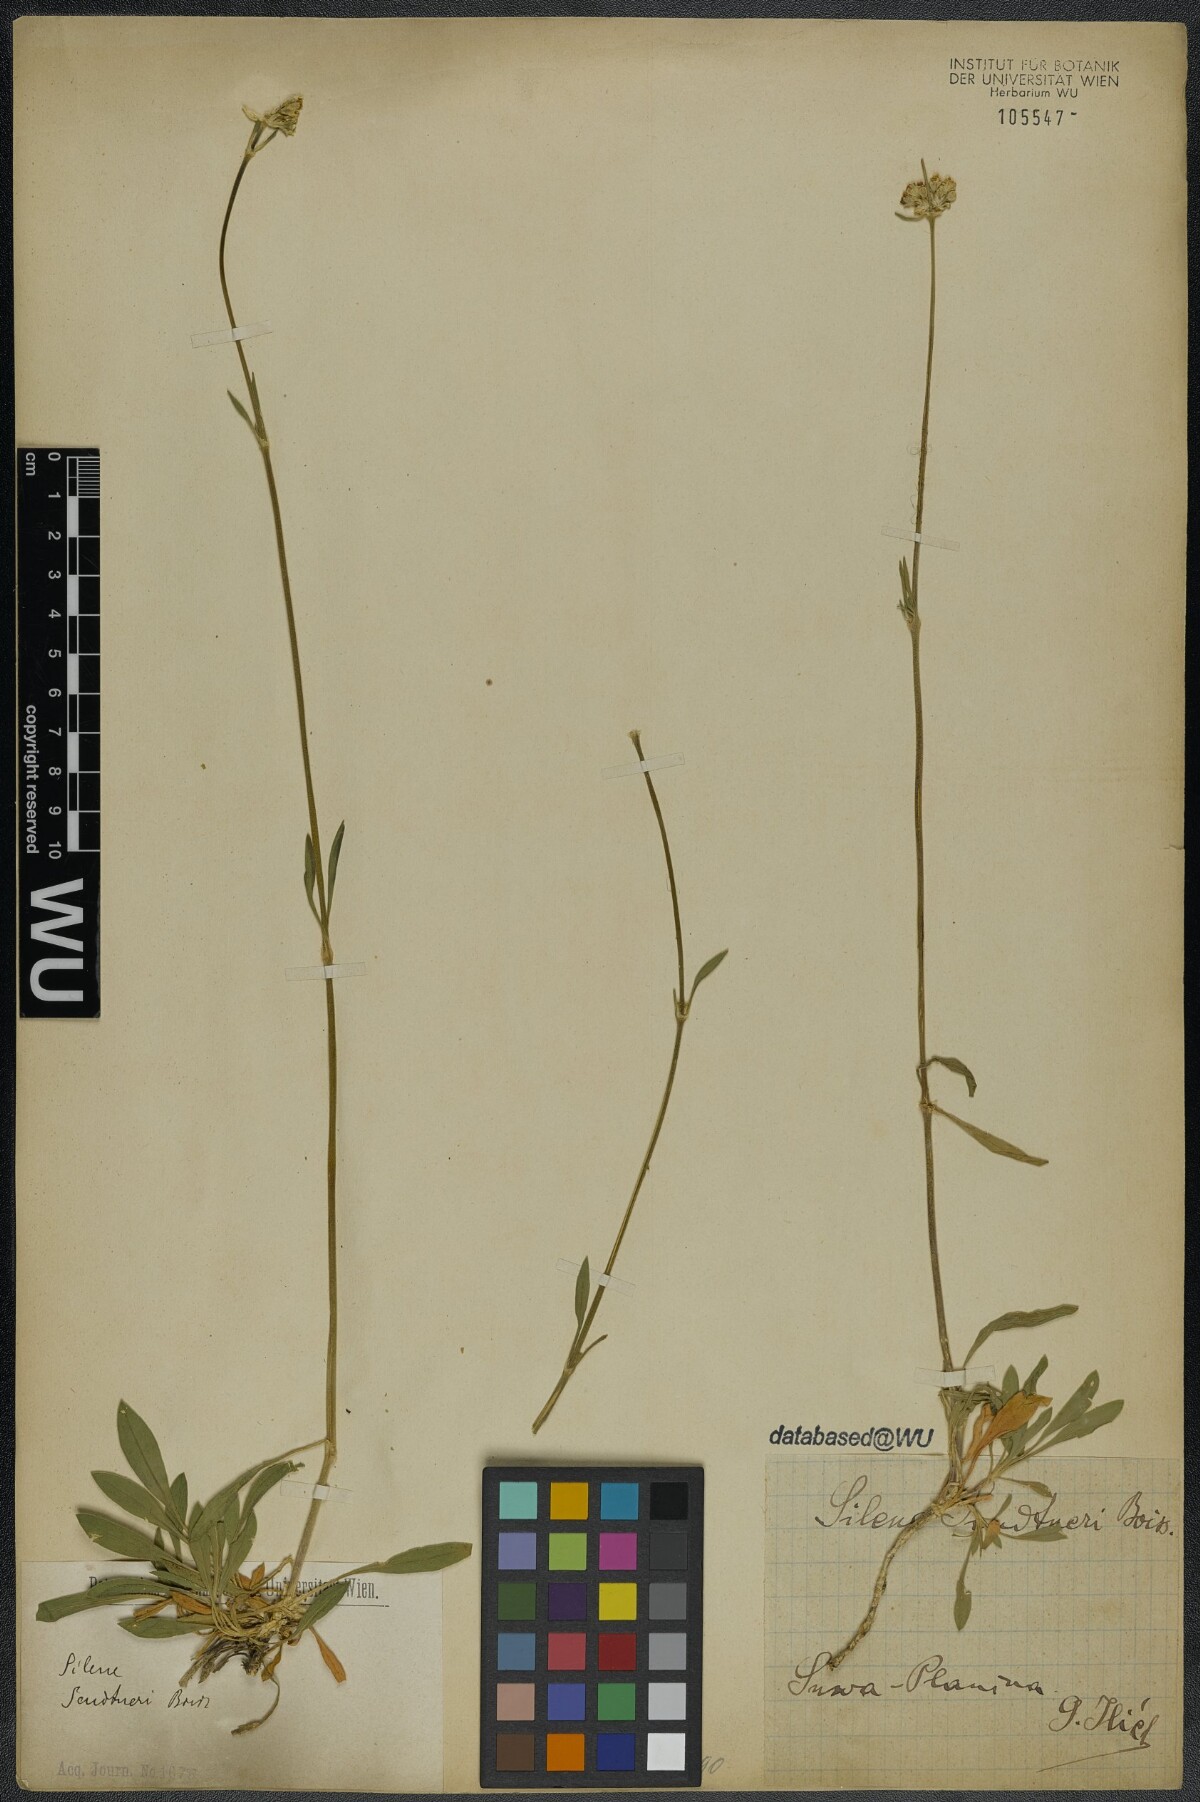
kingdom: Plantae
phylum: Tracheophyta
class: Magnoliopsida
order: Caryophyllales
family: Caryophyllaceae
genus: Silene
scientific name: Silene sendtneri
